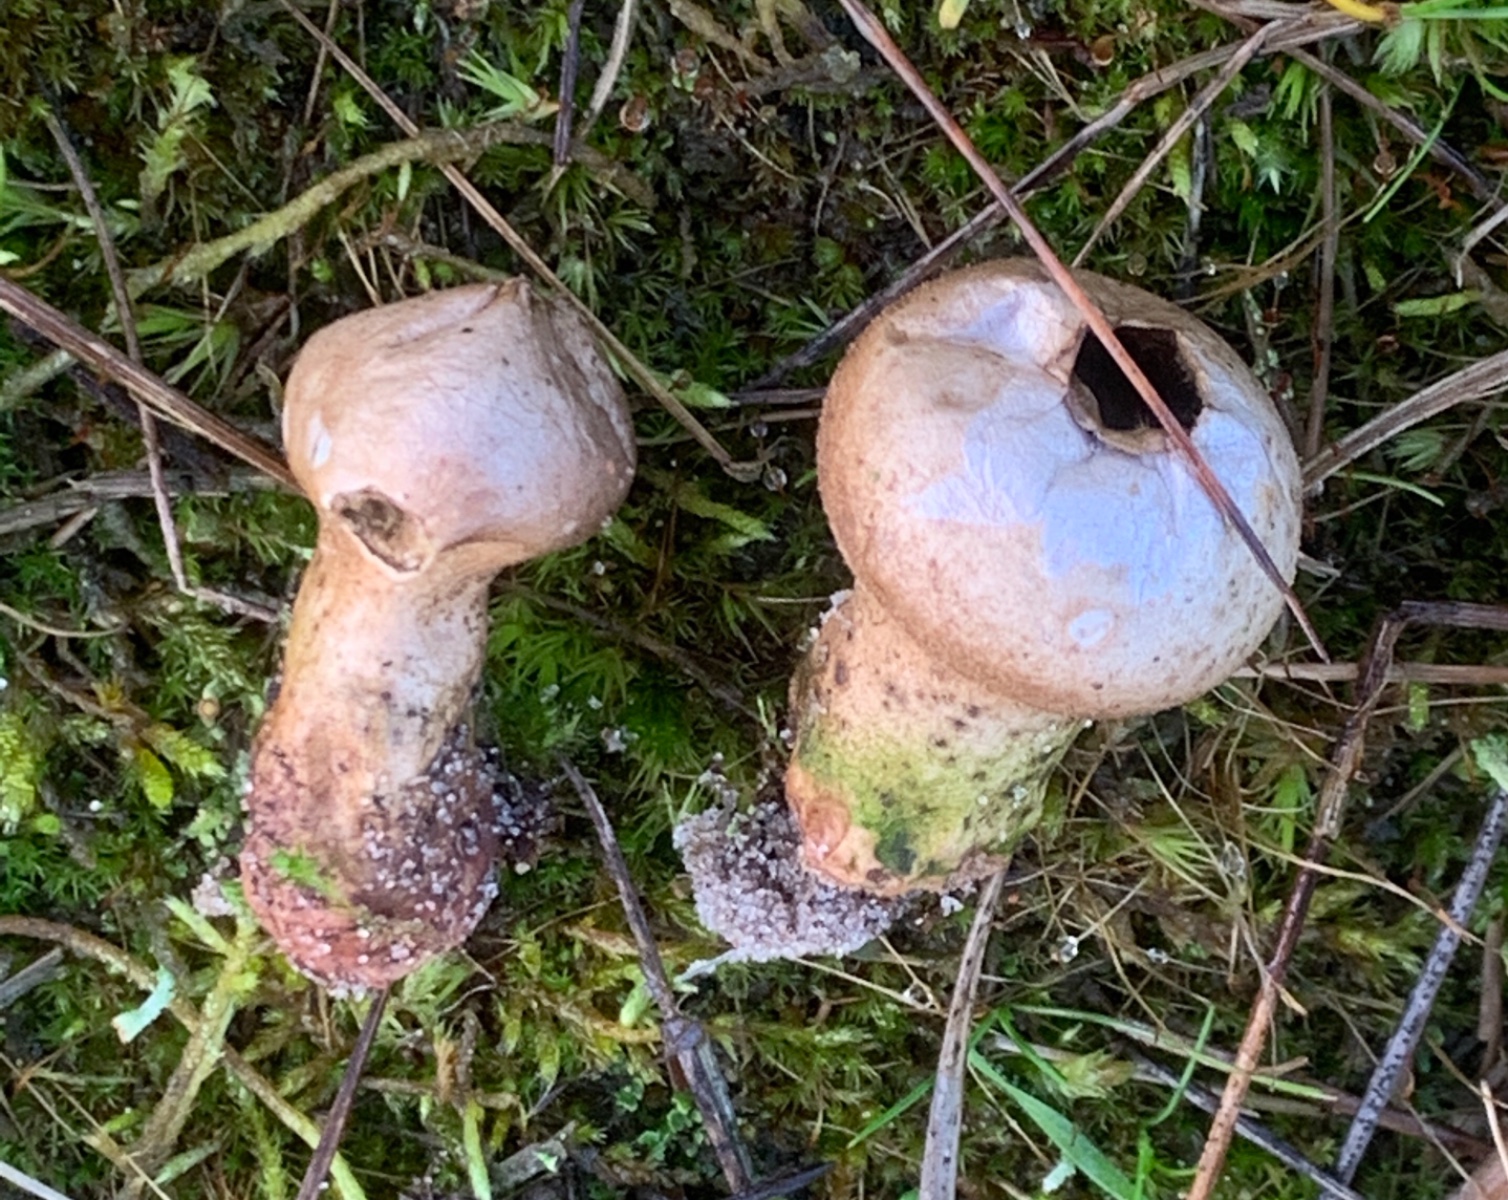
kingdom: Fungi
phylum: Basidiomycota
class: Agaricomycetes
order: Agaricales
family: Lycoperdaceae
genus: Lycoperdon
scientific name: Lycoperdon lividum
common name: mark-støvbold
